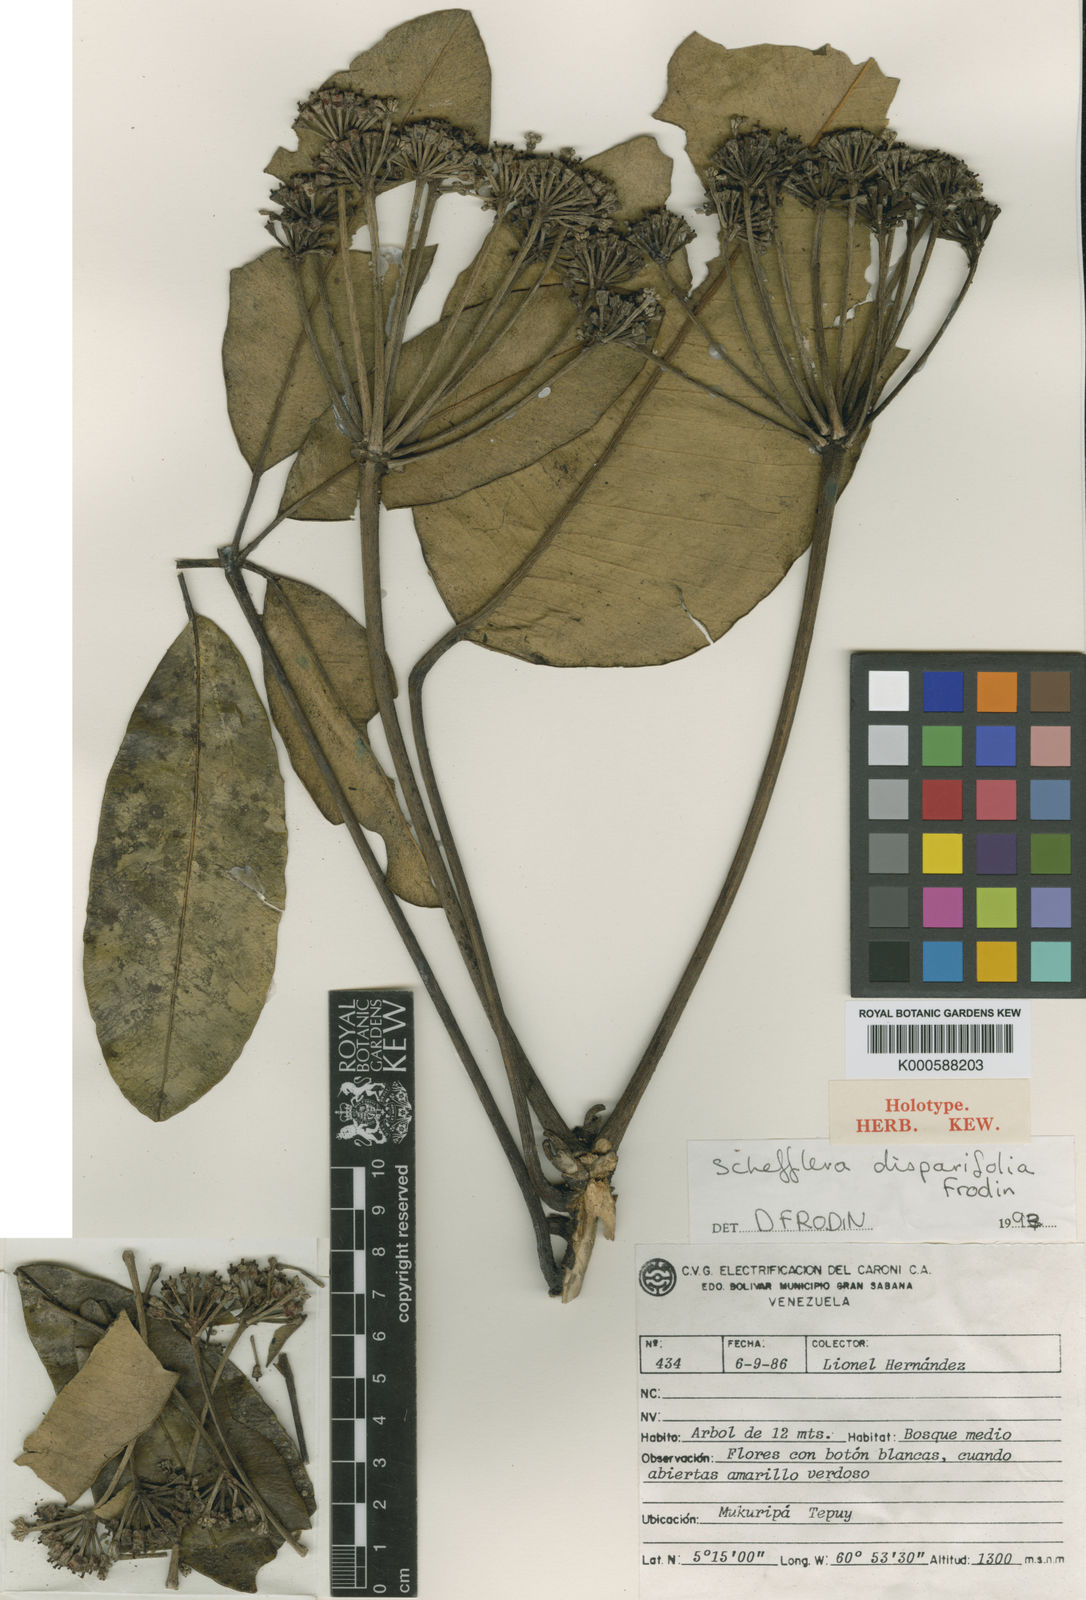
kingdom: Plantae
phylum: Tracheophyta
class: Magnoliopsida
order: Apiales
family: Araliaceae
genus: Crepinella
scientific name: Crepinella
